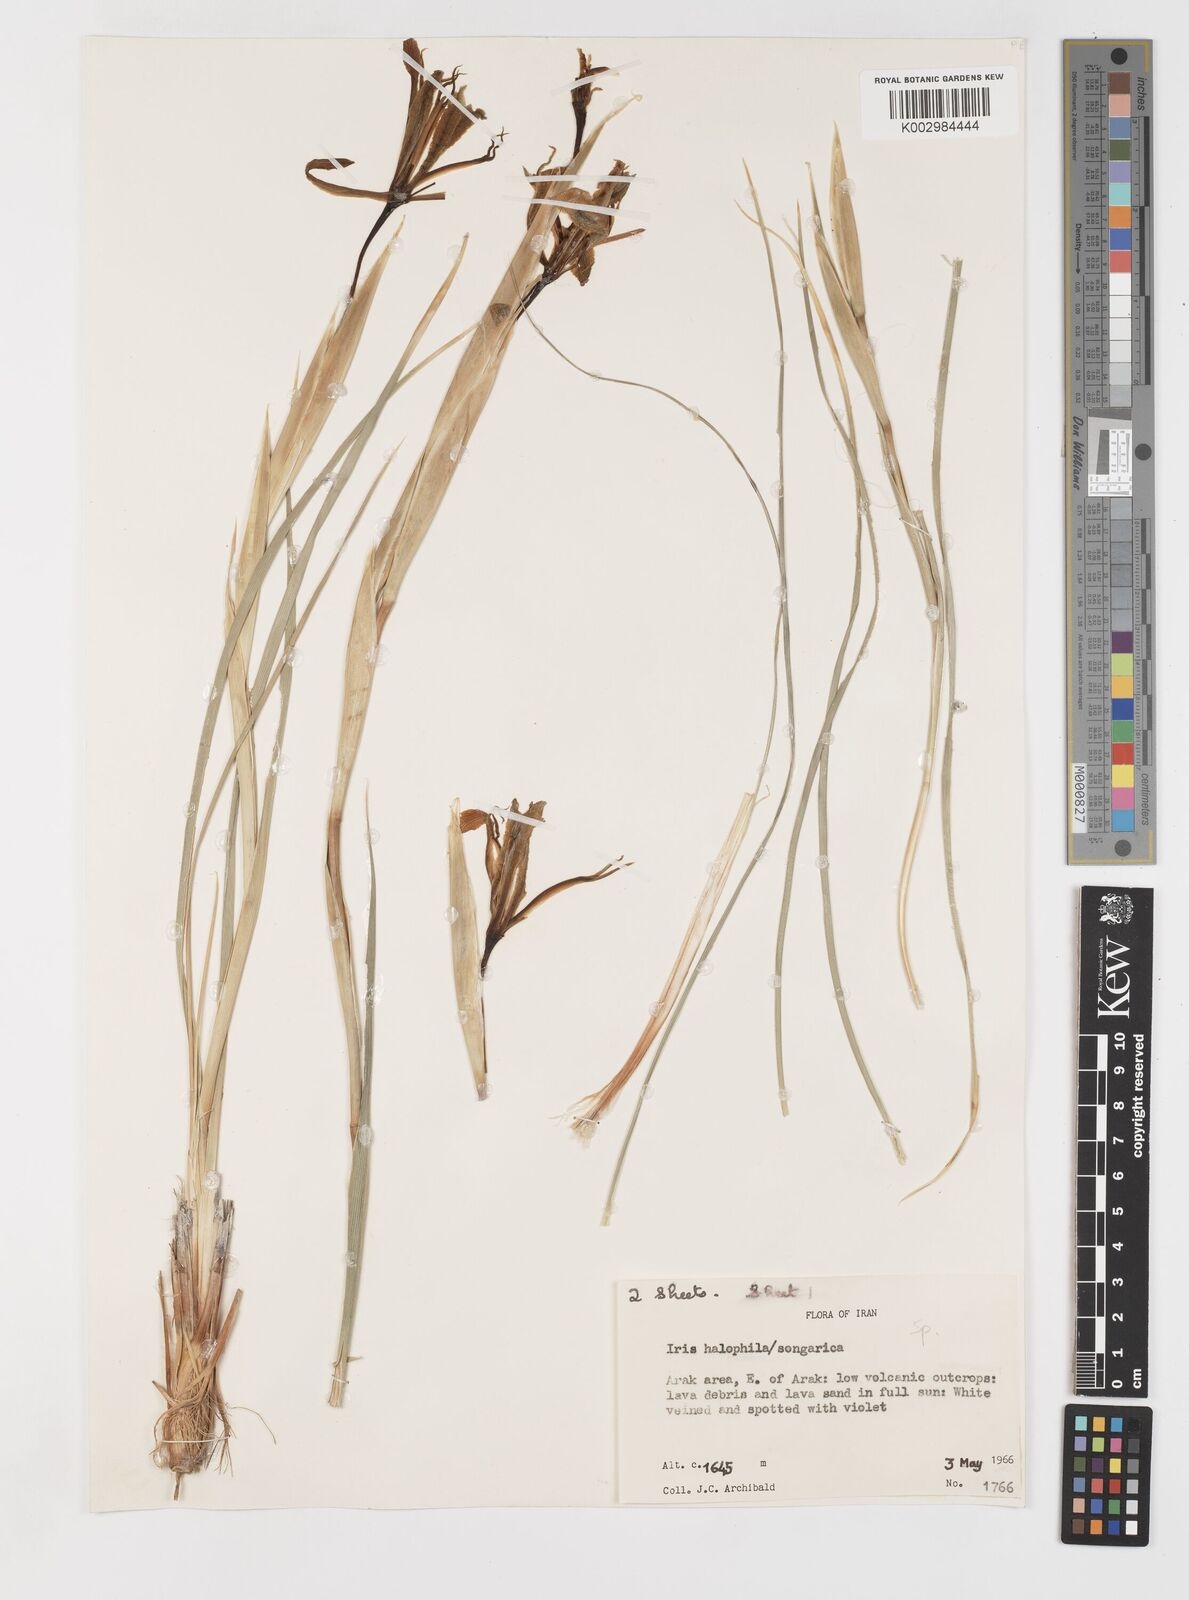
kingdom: Plantae
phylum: Tracheophyta
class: Liliopsida
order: Asparagales
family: Iridaceae
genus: Iris
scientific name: Iris songarica
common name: Songar iris
